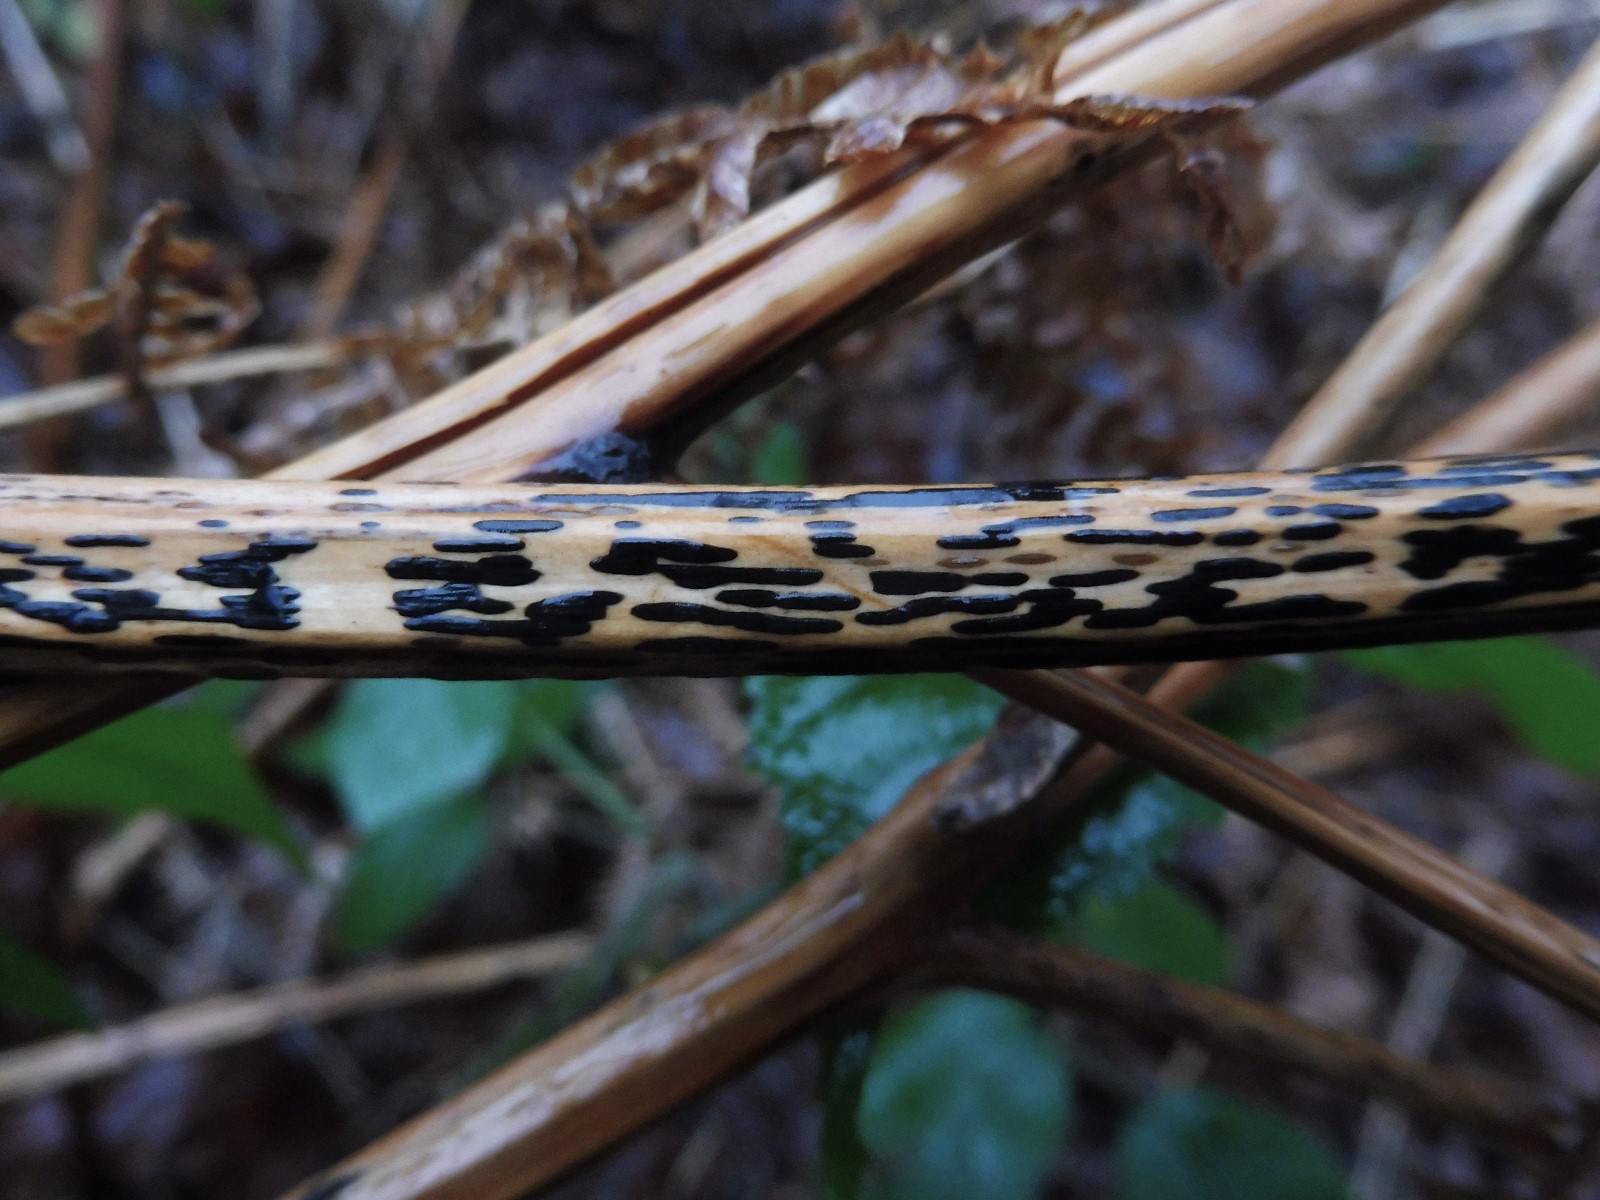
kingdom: Fungi
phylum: Ascomycota
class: Dothideomycetes
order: Pleosporales
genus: Rhopographus
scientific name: Rhopographus filicinus
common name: Bracken map
